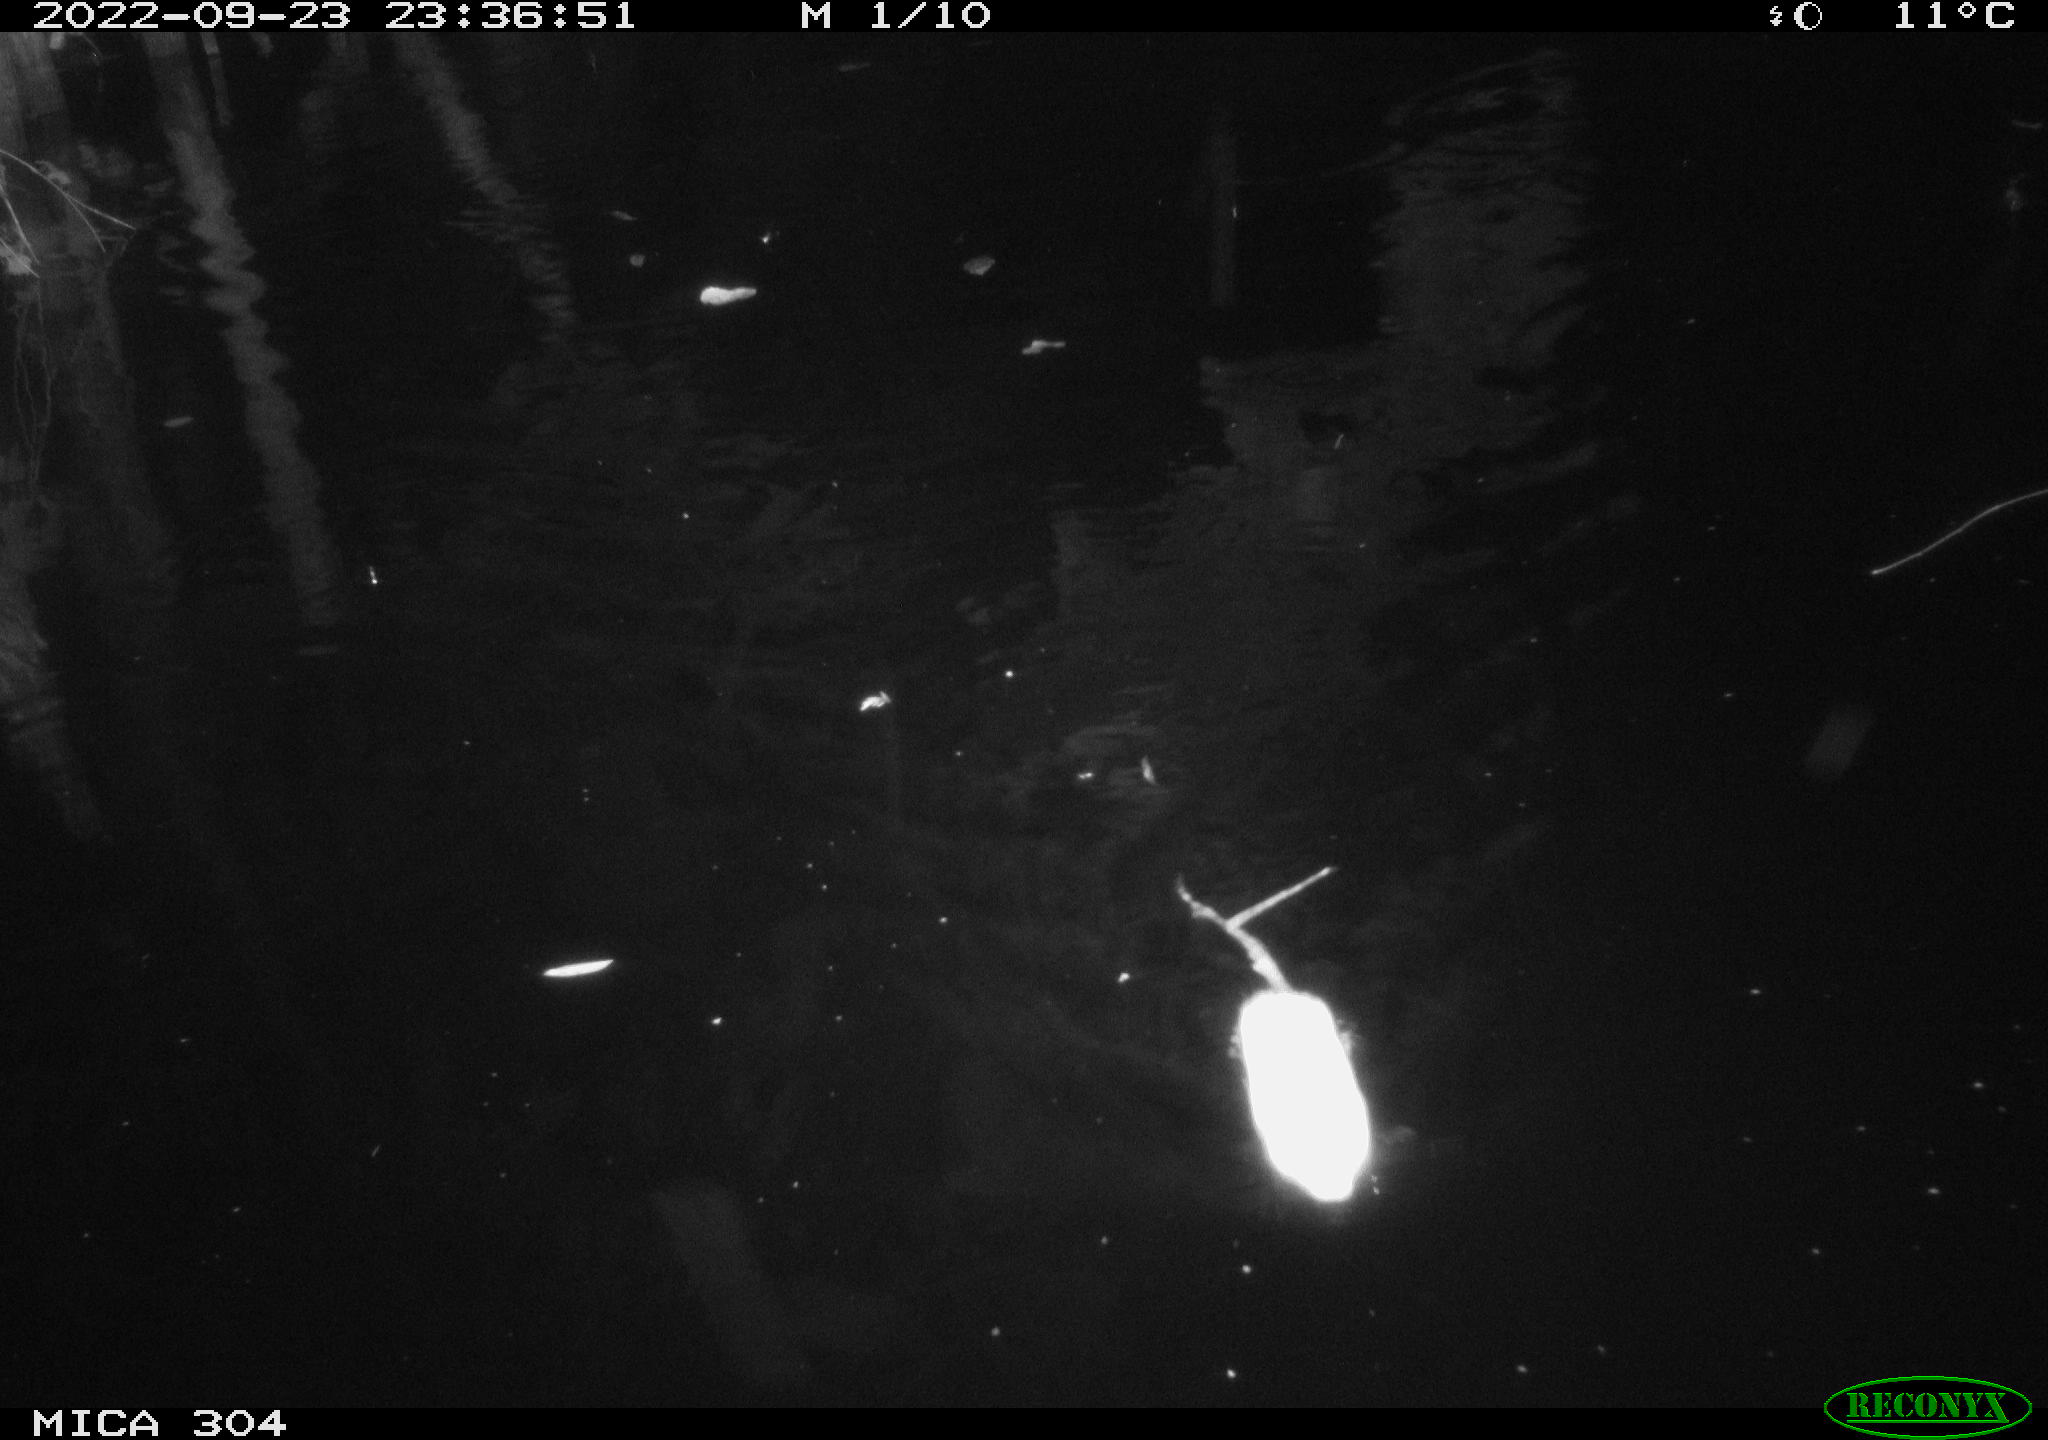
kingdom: Animalia
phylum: Chordata
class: Mammalia
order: Rodentia
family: Cricetidae
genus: Ondatra
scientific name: Ondatra zibethicus
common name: Muskrat
